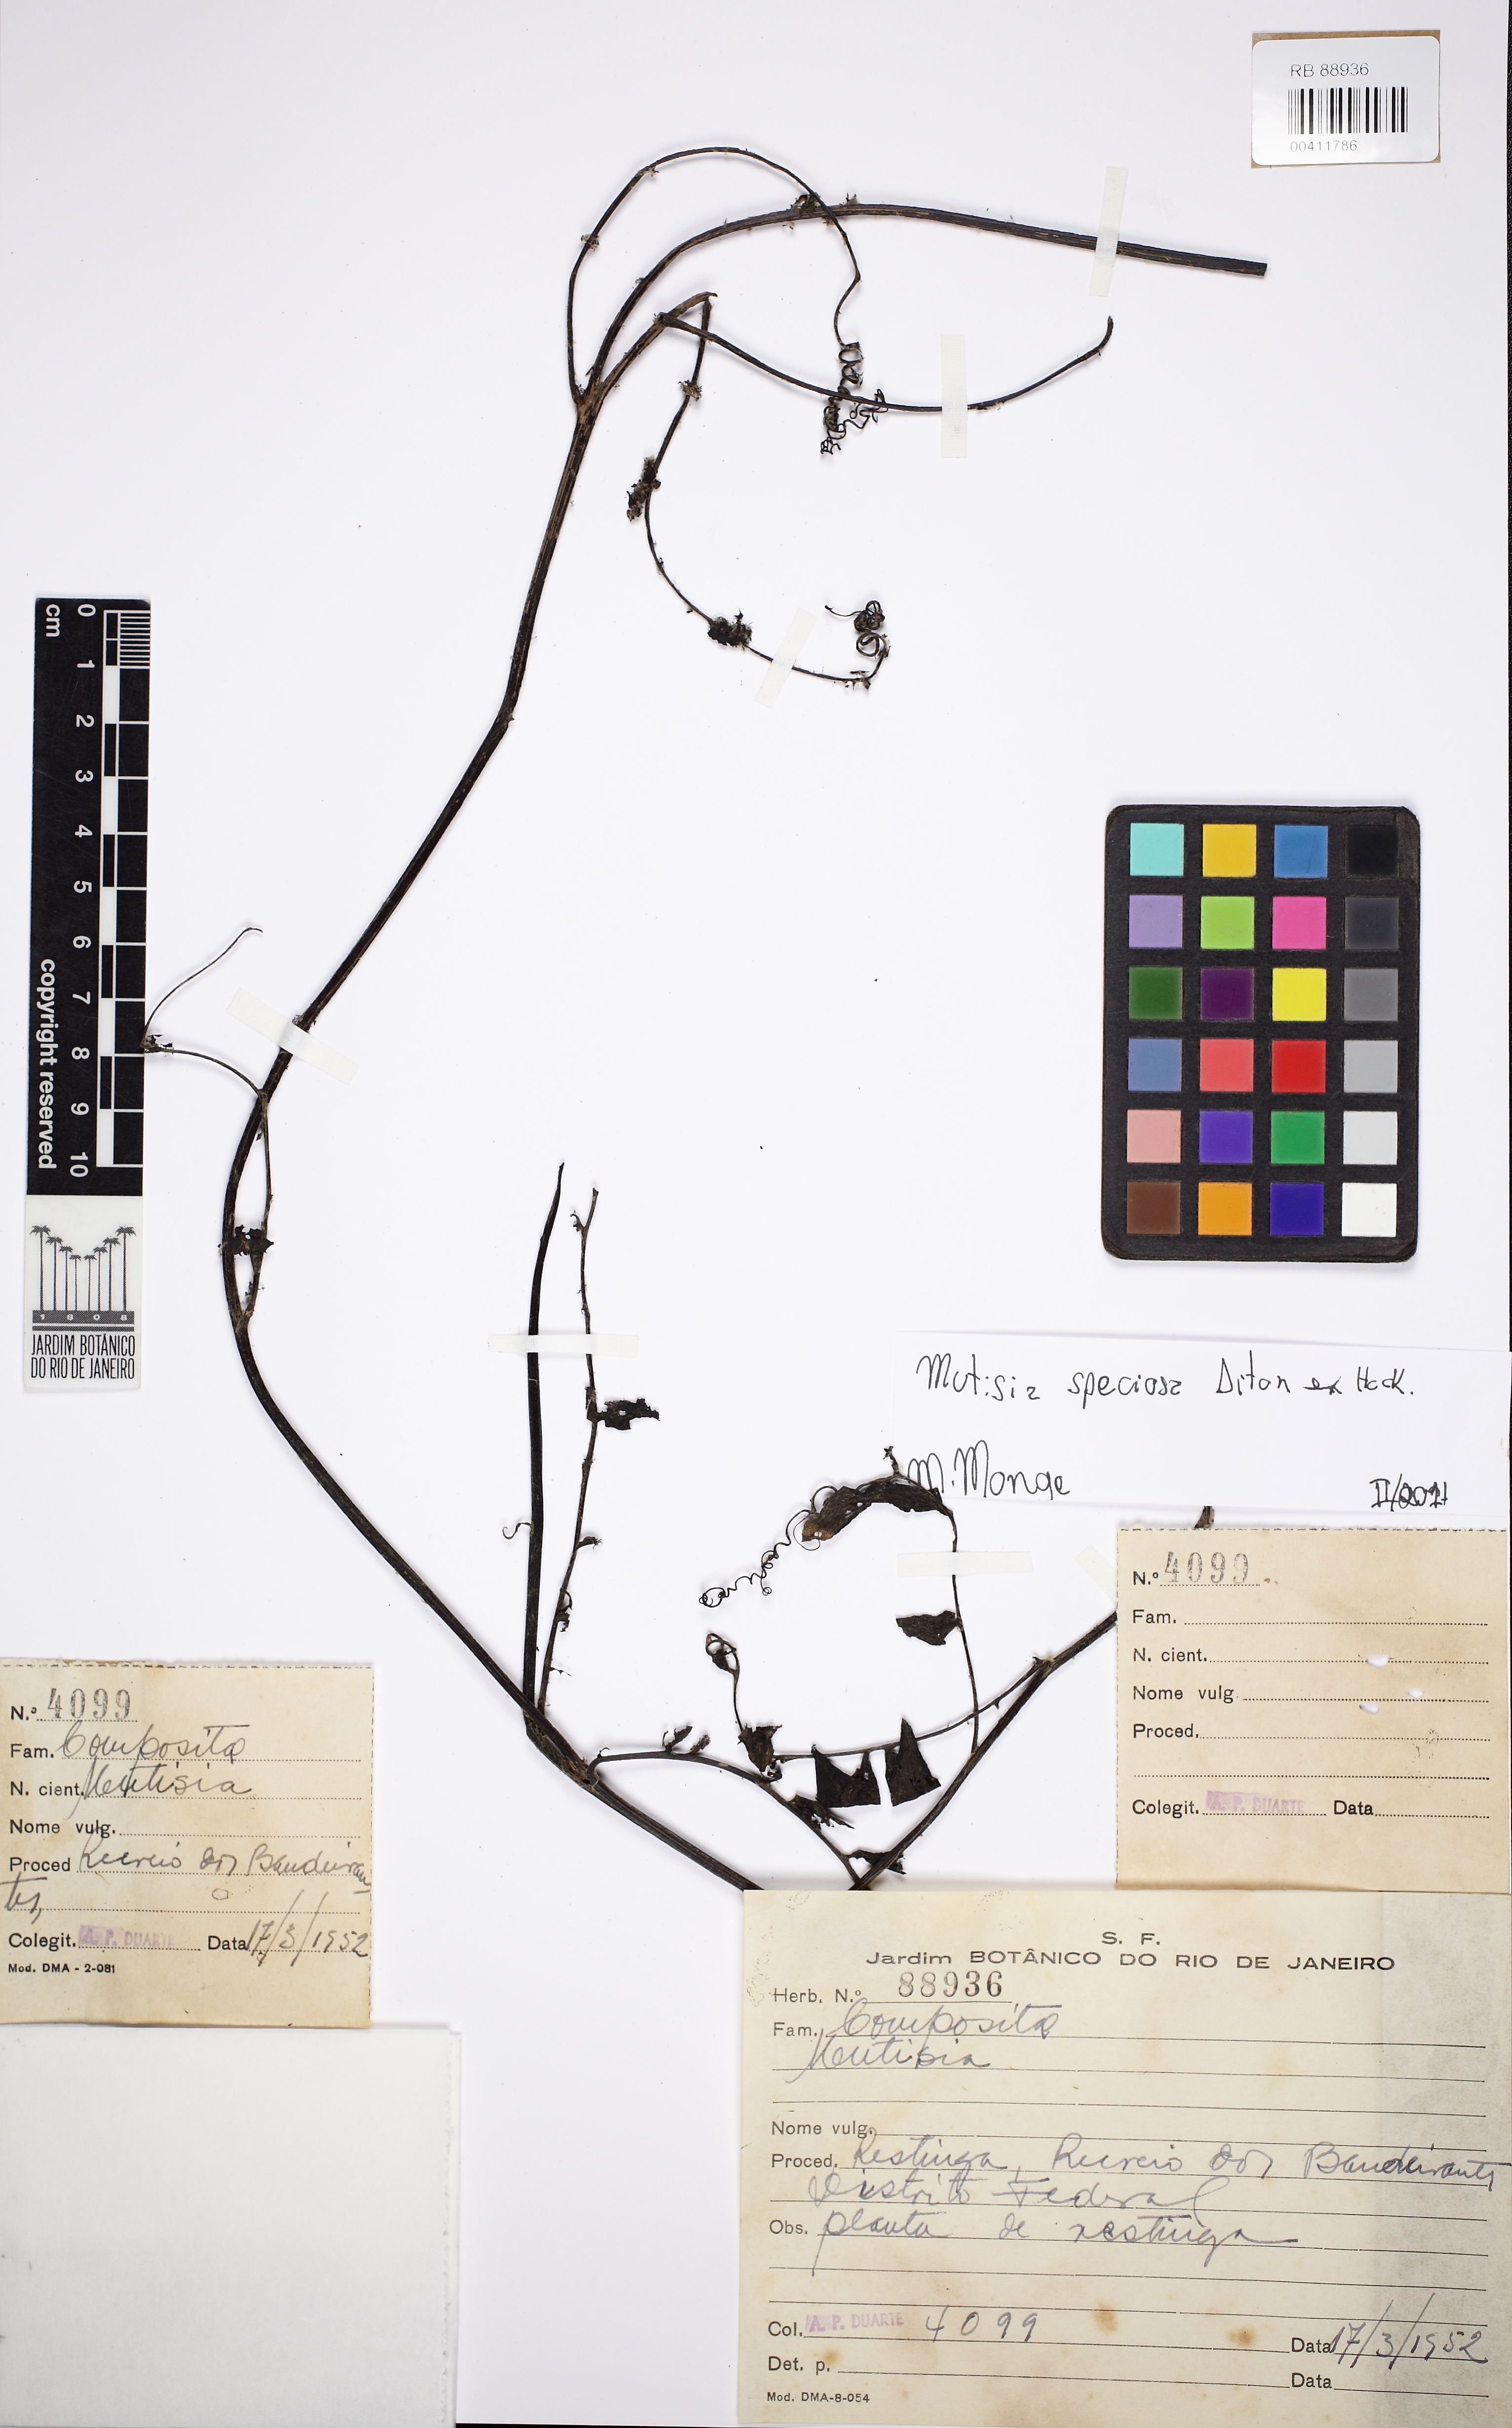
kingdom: Plantae
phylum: Tracheophyta
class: Magnoliopsida
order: Asterales
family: Asteraceae
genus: Mutisia
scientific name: Mutisia speciosa
